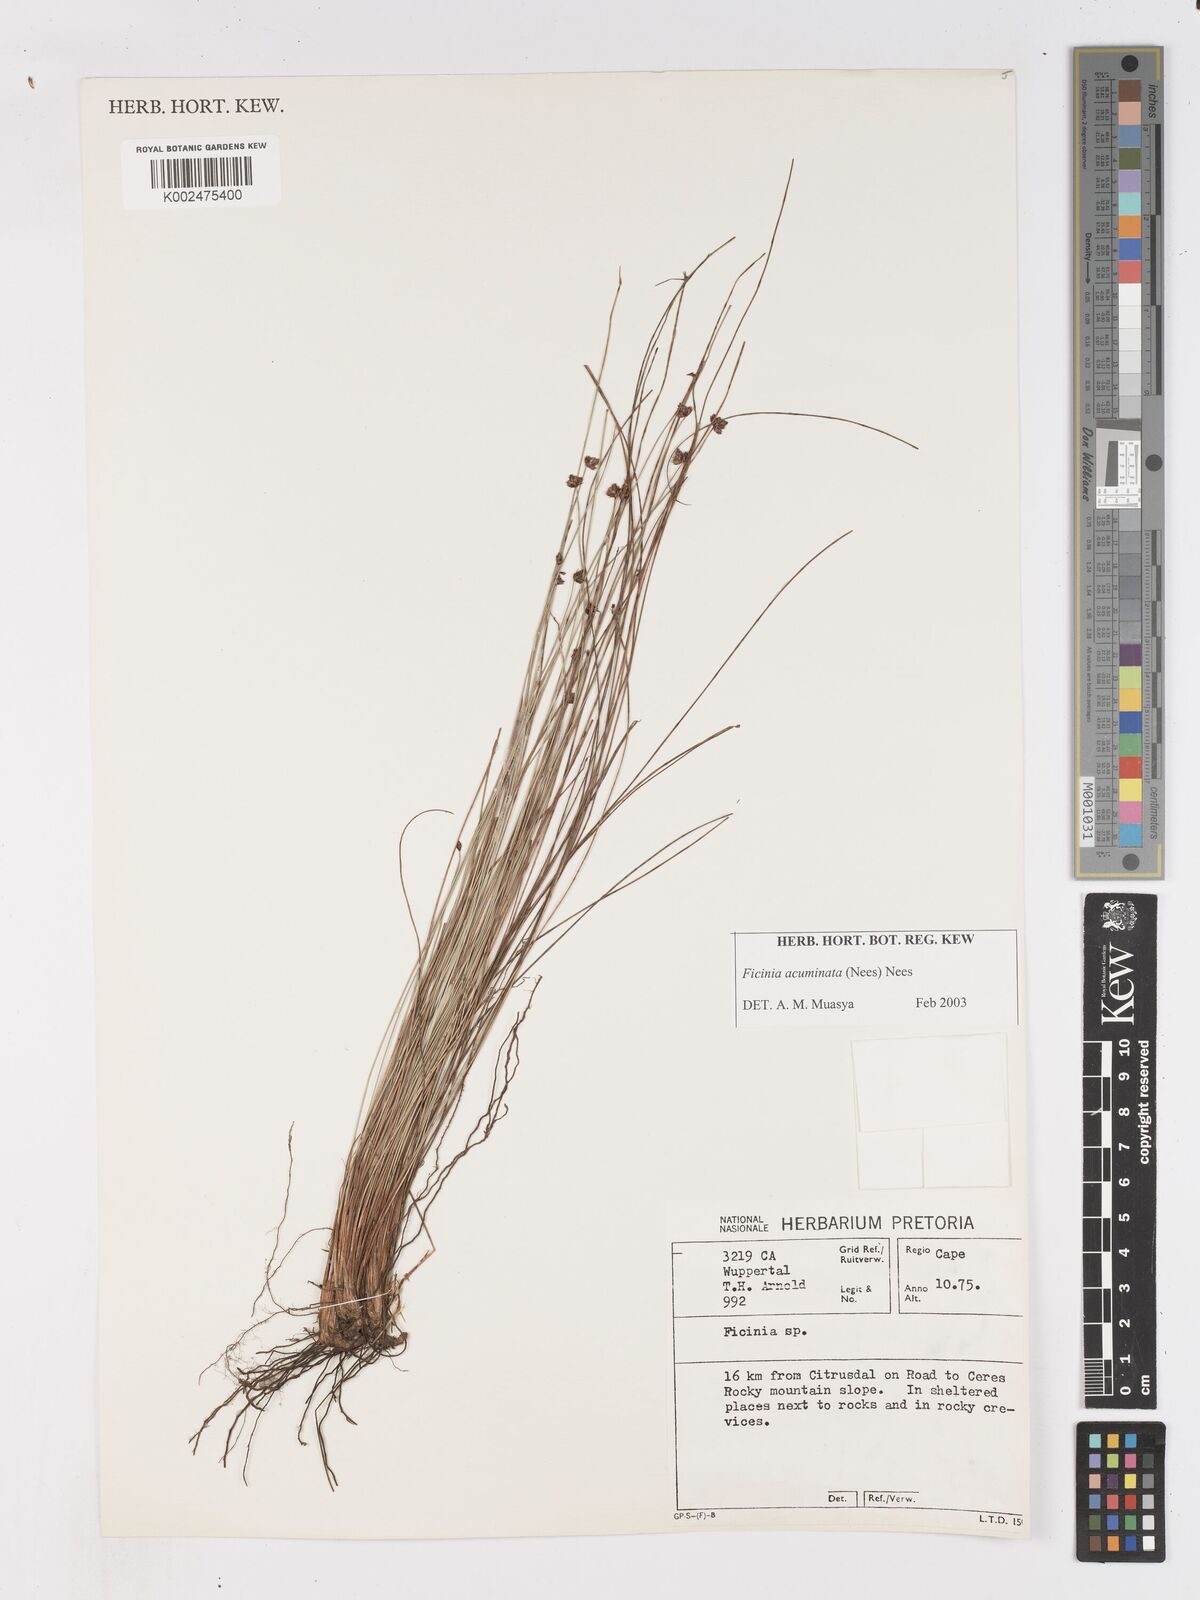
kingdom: Plantae
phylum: Tracheophyta
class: Liliopsida
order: Poales
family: Cyperaceae
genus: Ficinia
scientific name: Ficinia acuminata
